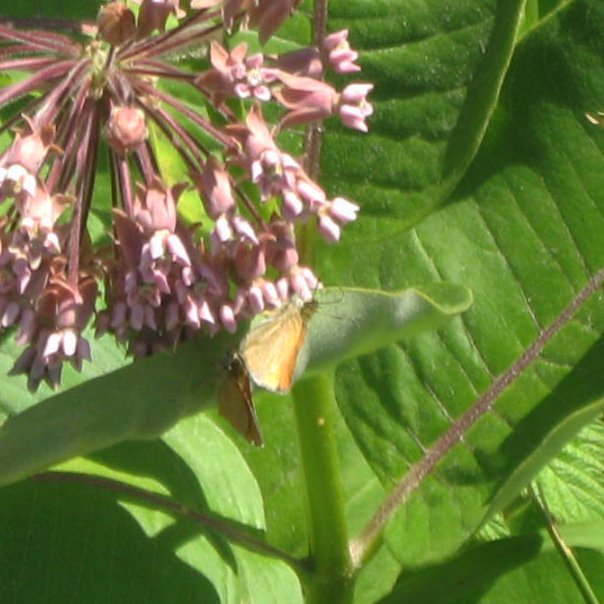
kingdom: Animalia
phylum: Arthropoda
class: Insecta
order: Lepidoptera
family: Hesperiidae
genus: Thymelicus
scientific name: Thymelicus lineola
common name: European Skipper
